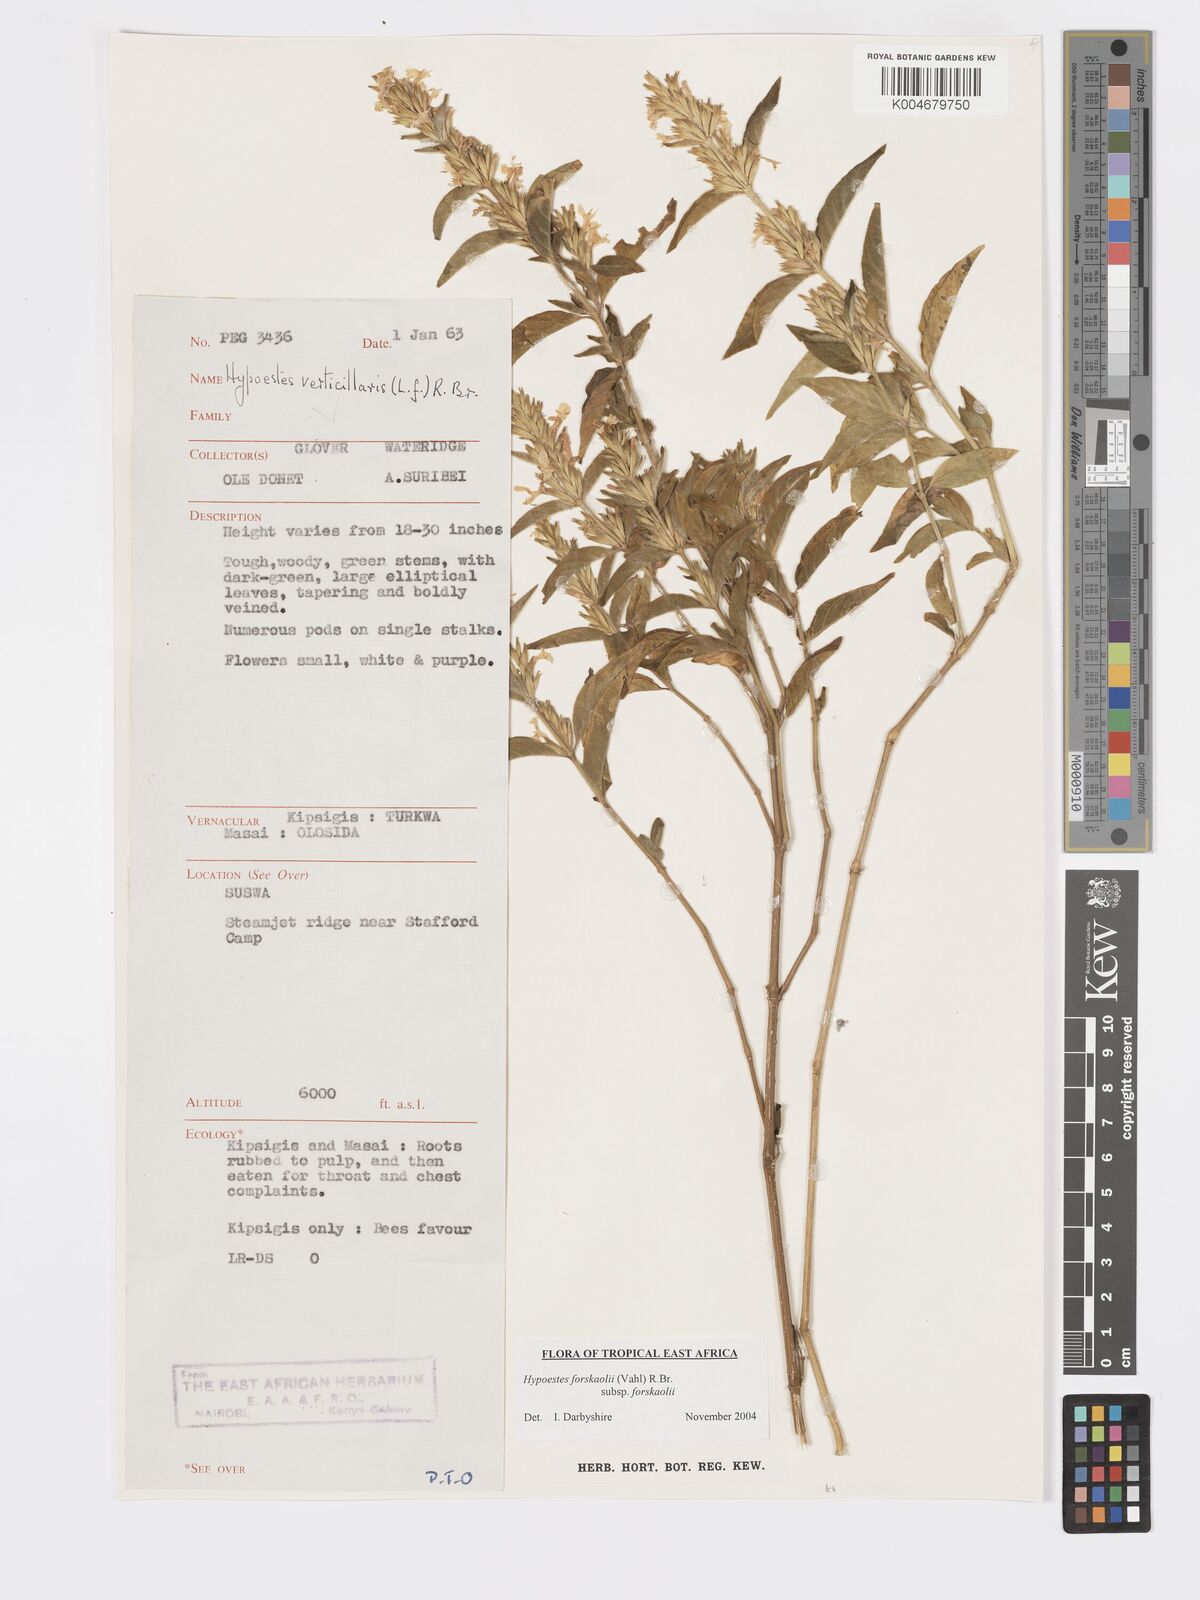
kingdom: Plantae
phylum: Tracheophyta
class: Magnoliopsida
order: Lamiales
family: Acanthaceae
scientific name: Acanthaceae
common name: Acanthaceae
